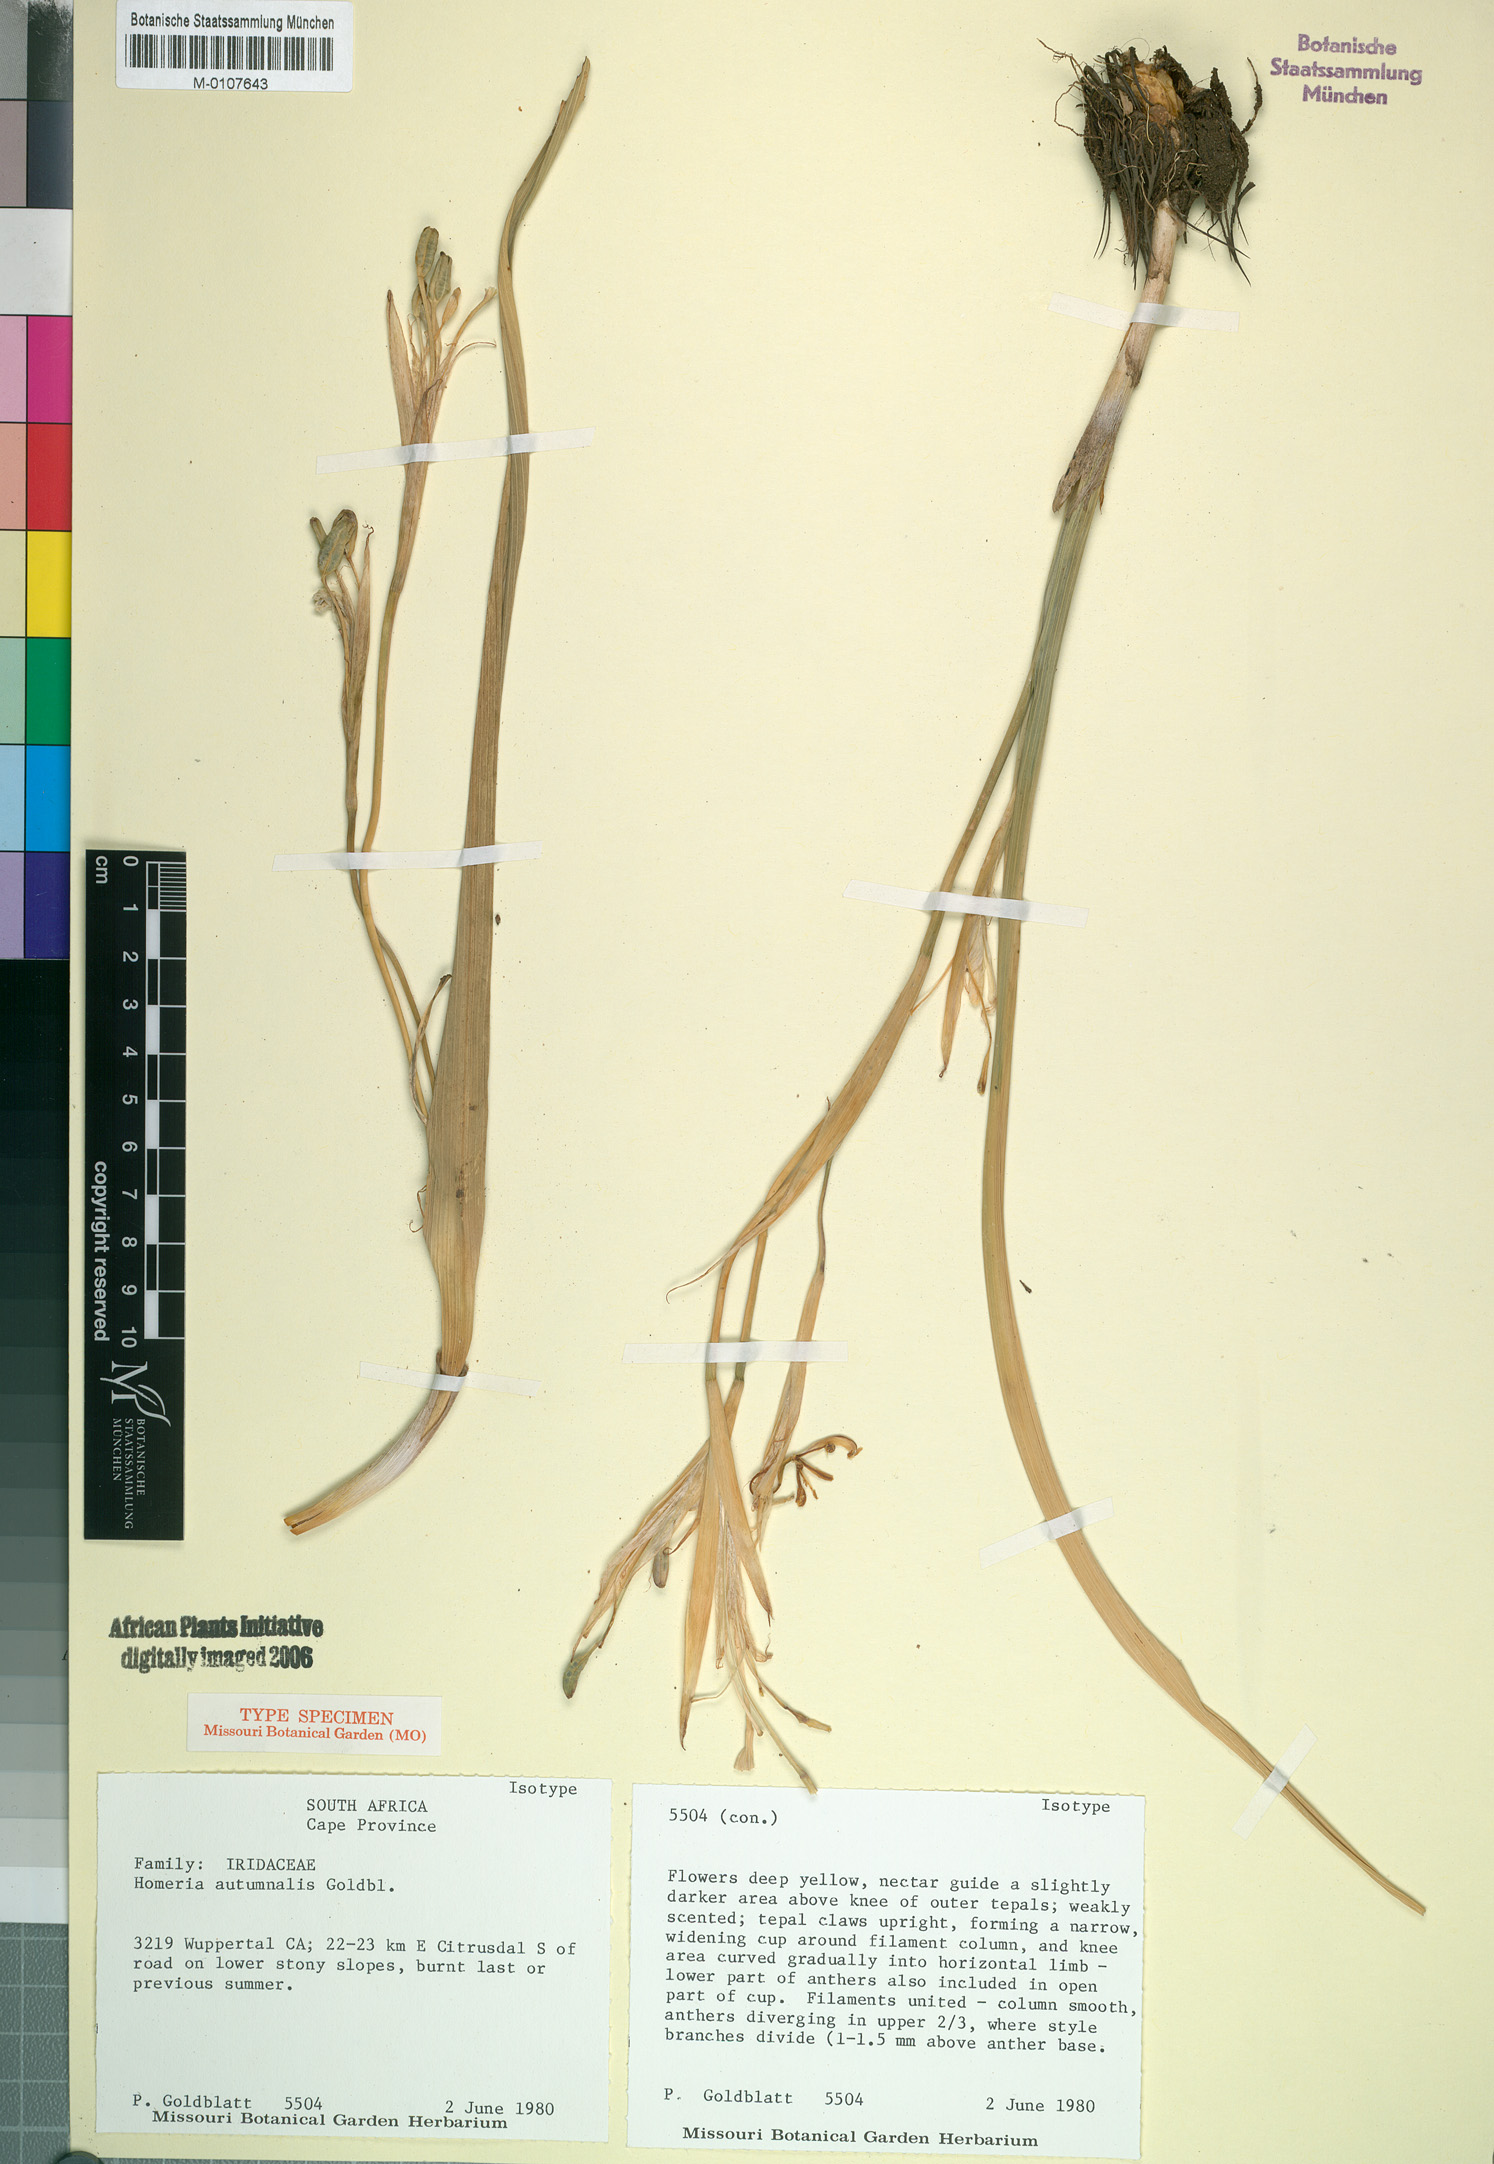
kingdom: Plantae
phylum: Tracheophyta
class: Liliopsida
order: Asparagales
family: Iridaceae
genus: Moraea
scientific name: Moraea autumnalis
